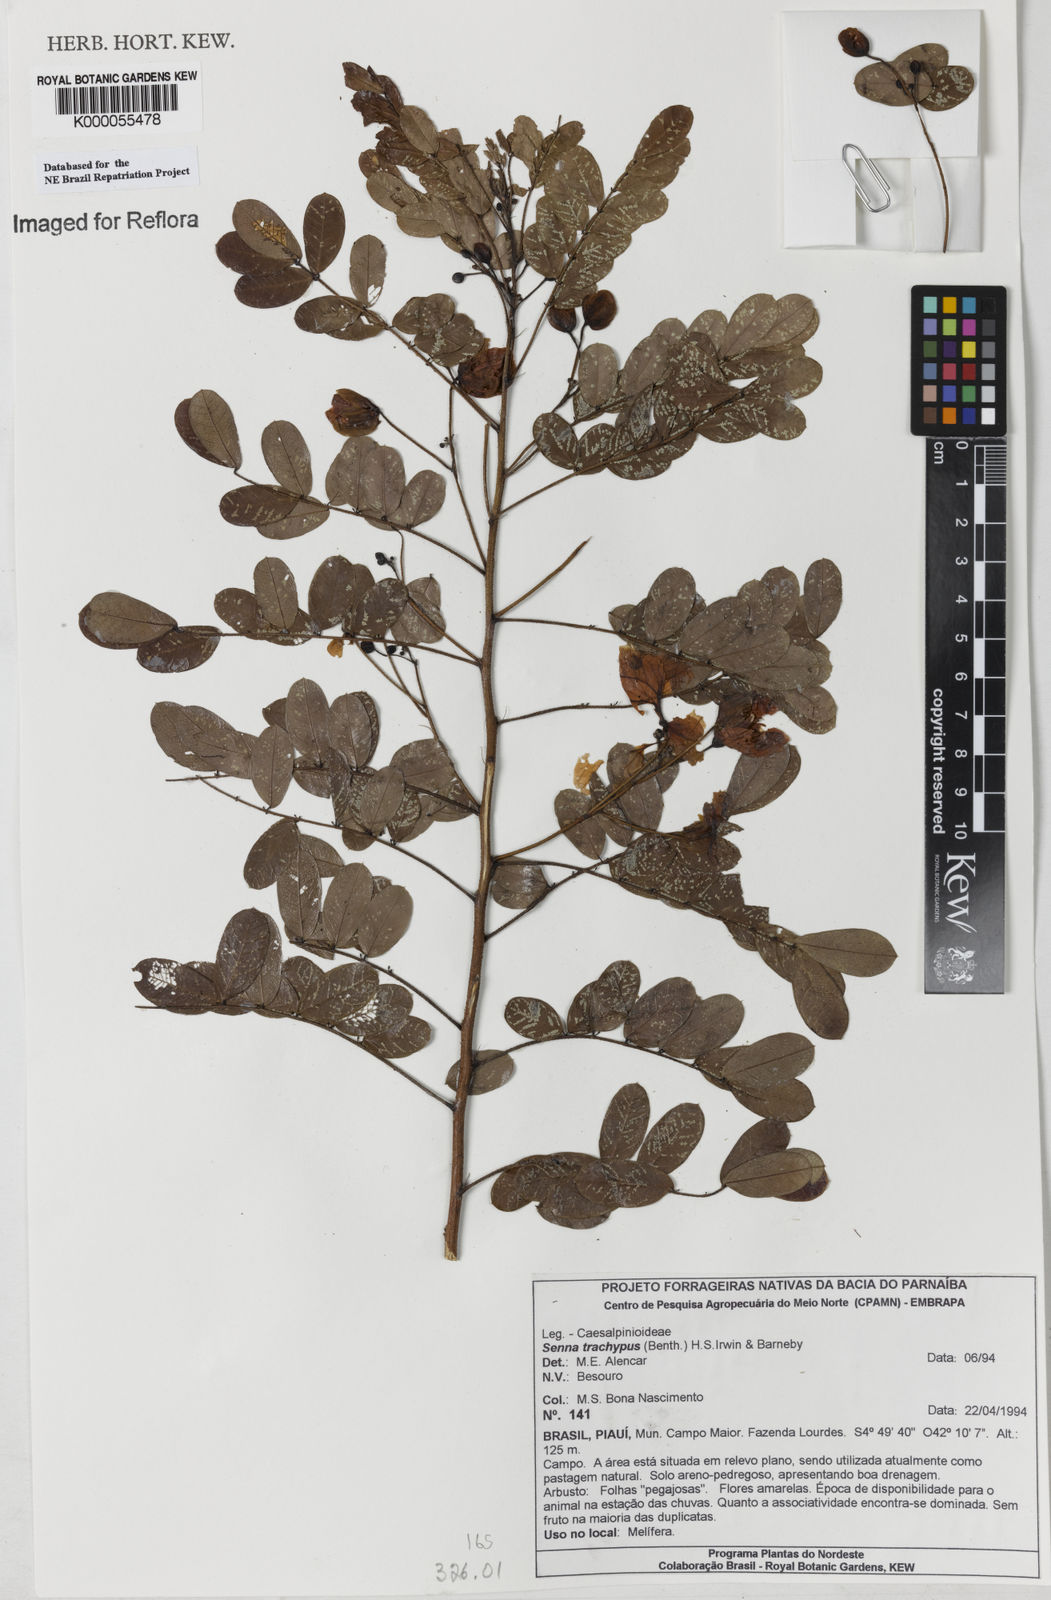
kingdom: Plantae
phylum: Tracheophyta
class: Magnoliopsida
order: Fabales
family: Fabaceae
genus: Senna
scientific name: Senna trachypus
